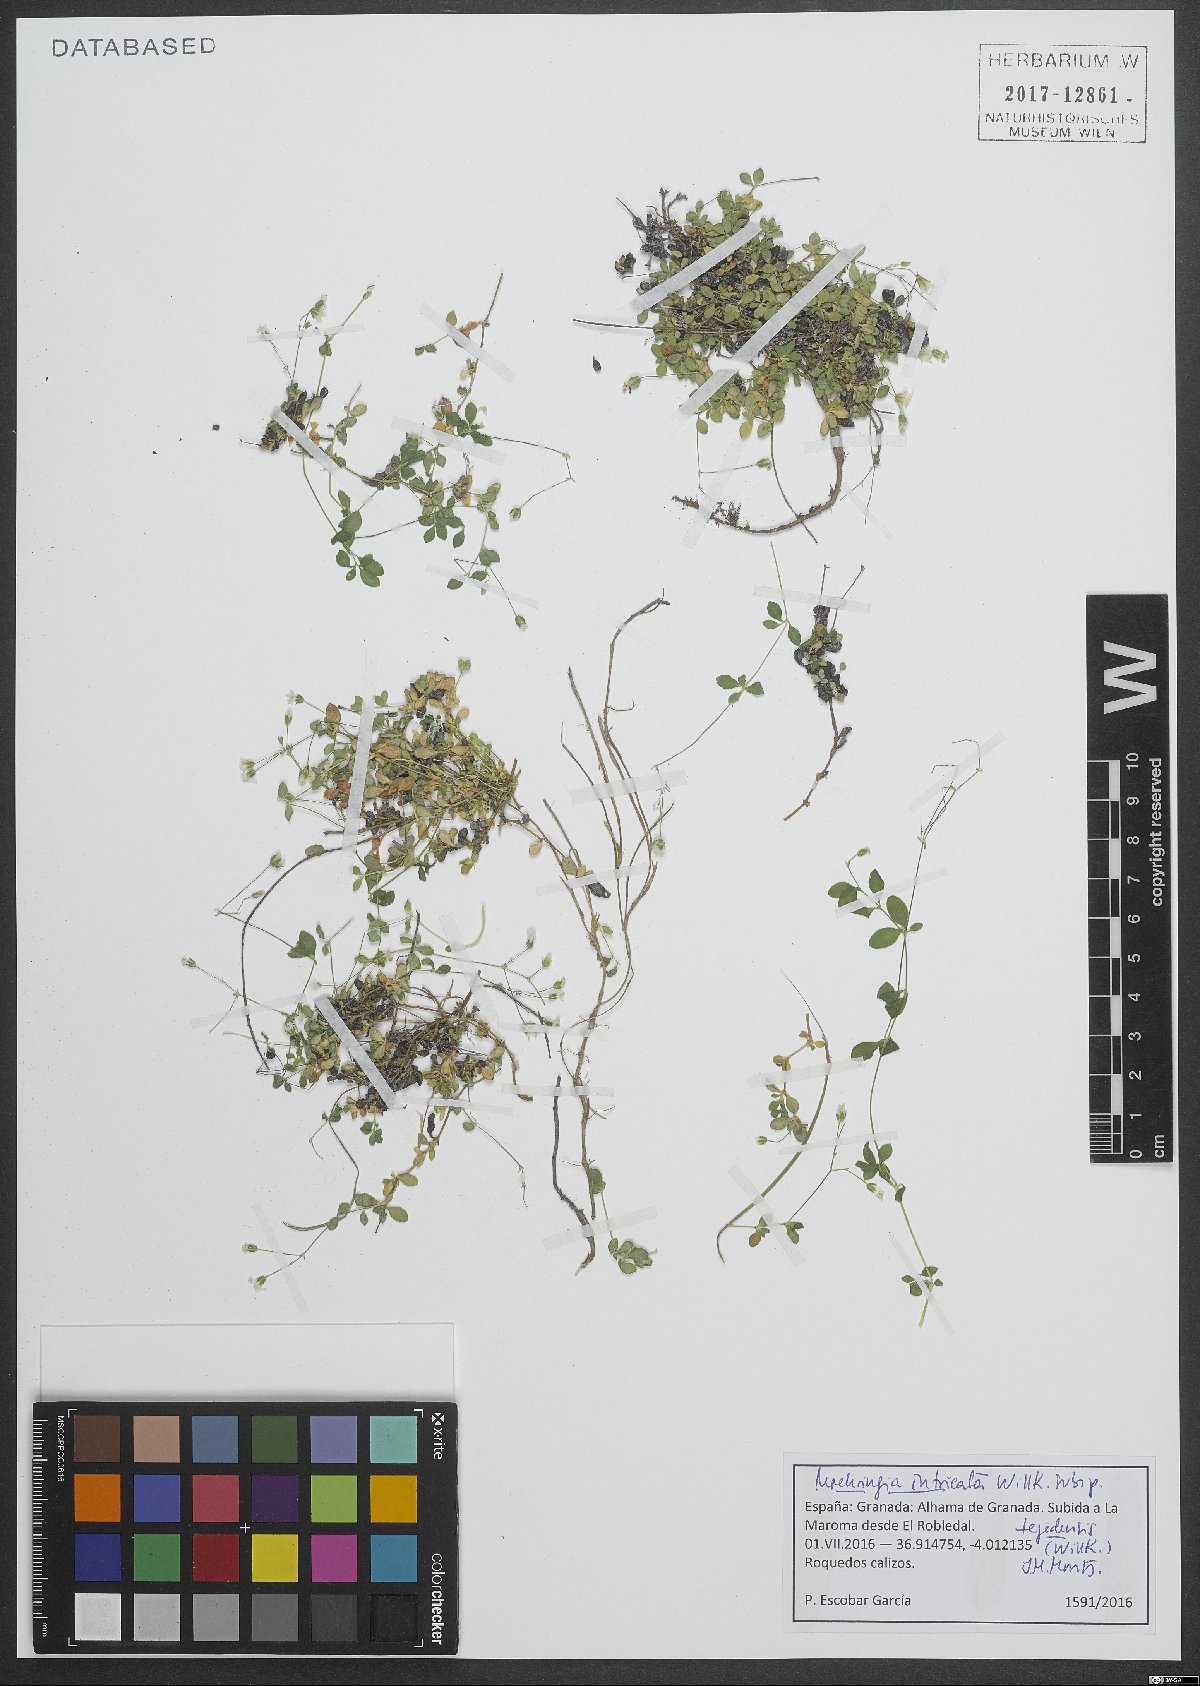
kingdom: Plantae
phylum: Tracheophyta
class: Magnoliopsida
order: Caryophyllales
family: Caryophyllaceae
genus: Arenaria
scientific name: Arenaria tejedensis
